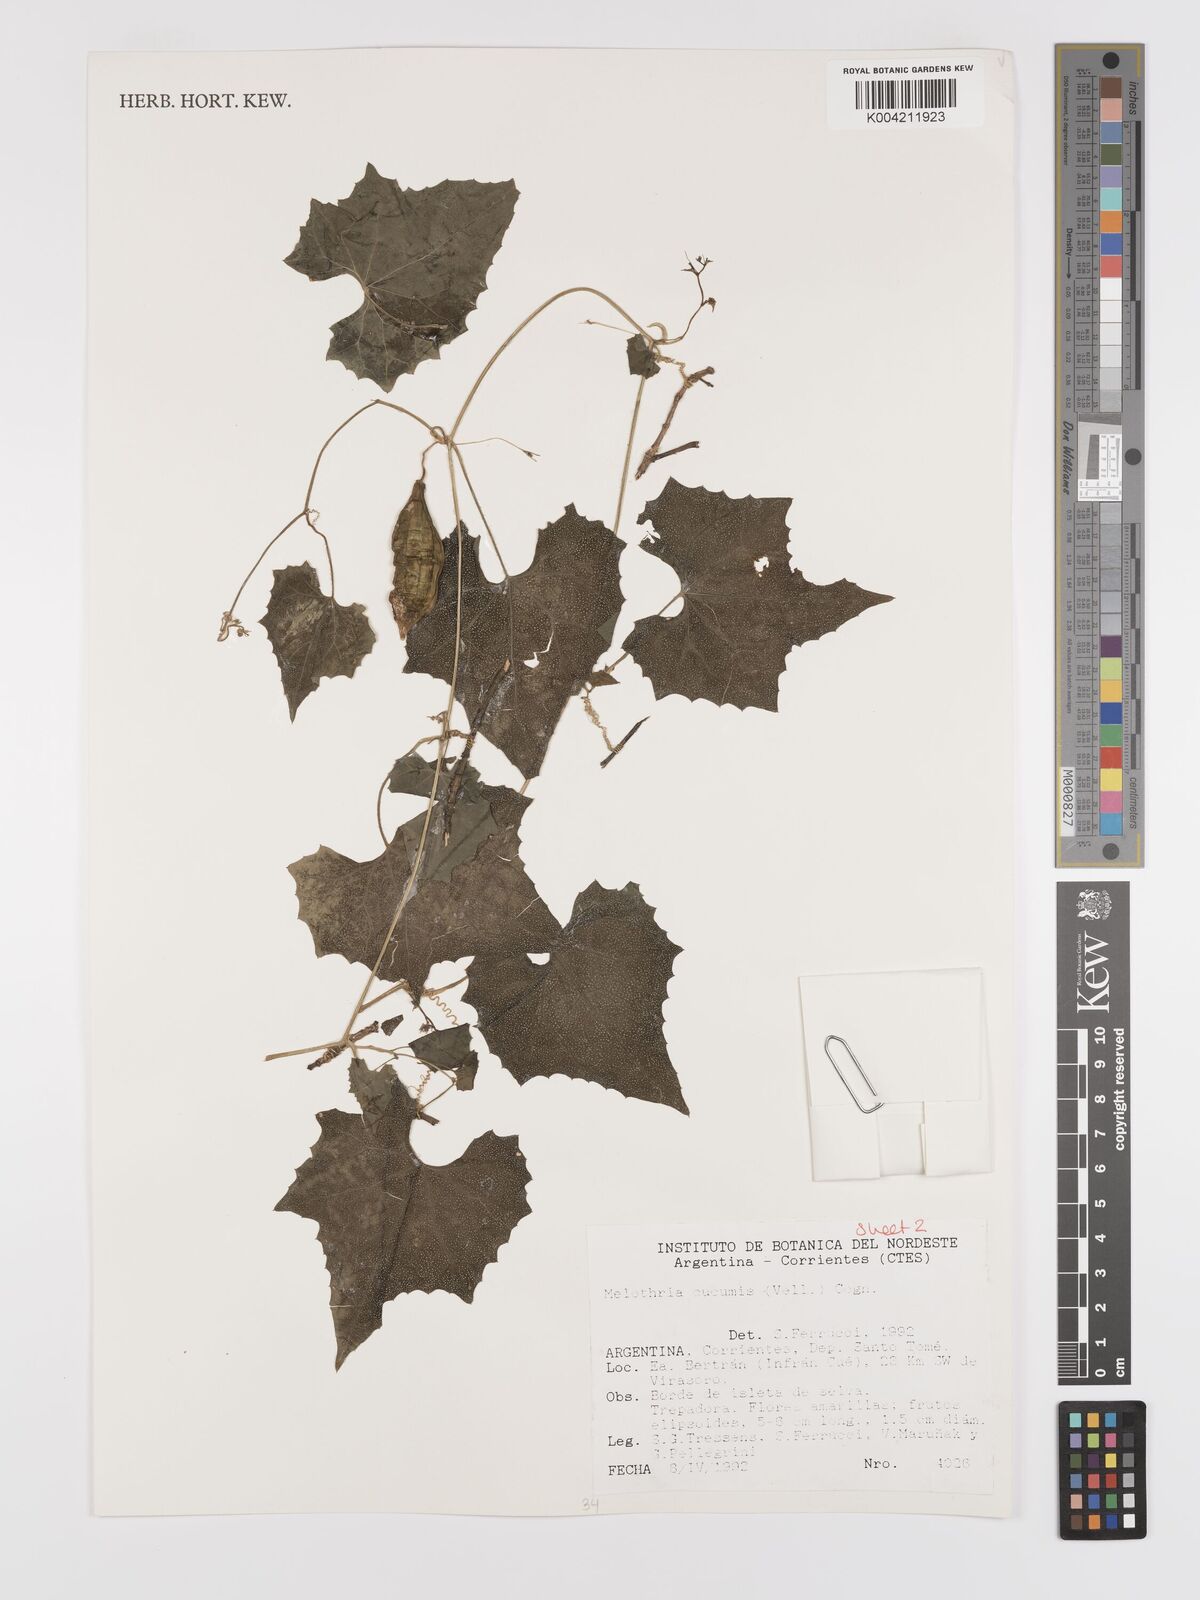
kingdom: Plantae
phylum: Tracheophyta
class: Magnoliopsida
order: Cucurbitales
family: Cucurbitaceae
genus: Melothria
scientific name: Melothria cucumis
